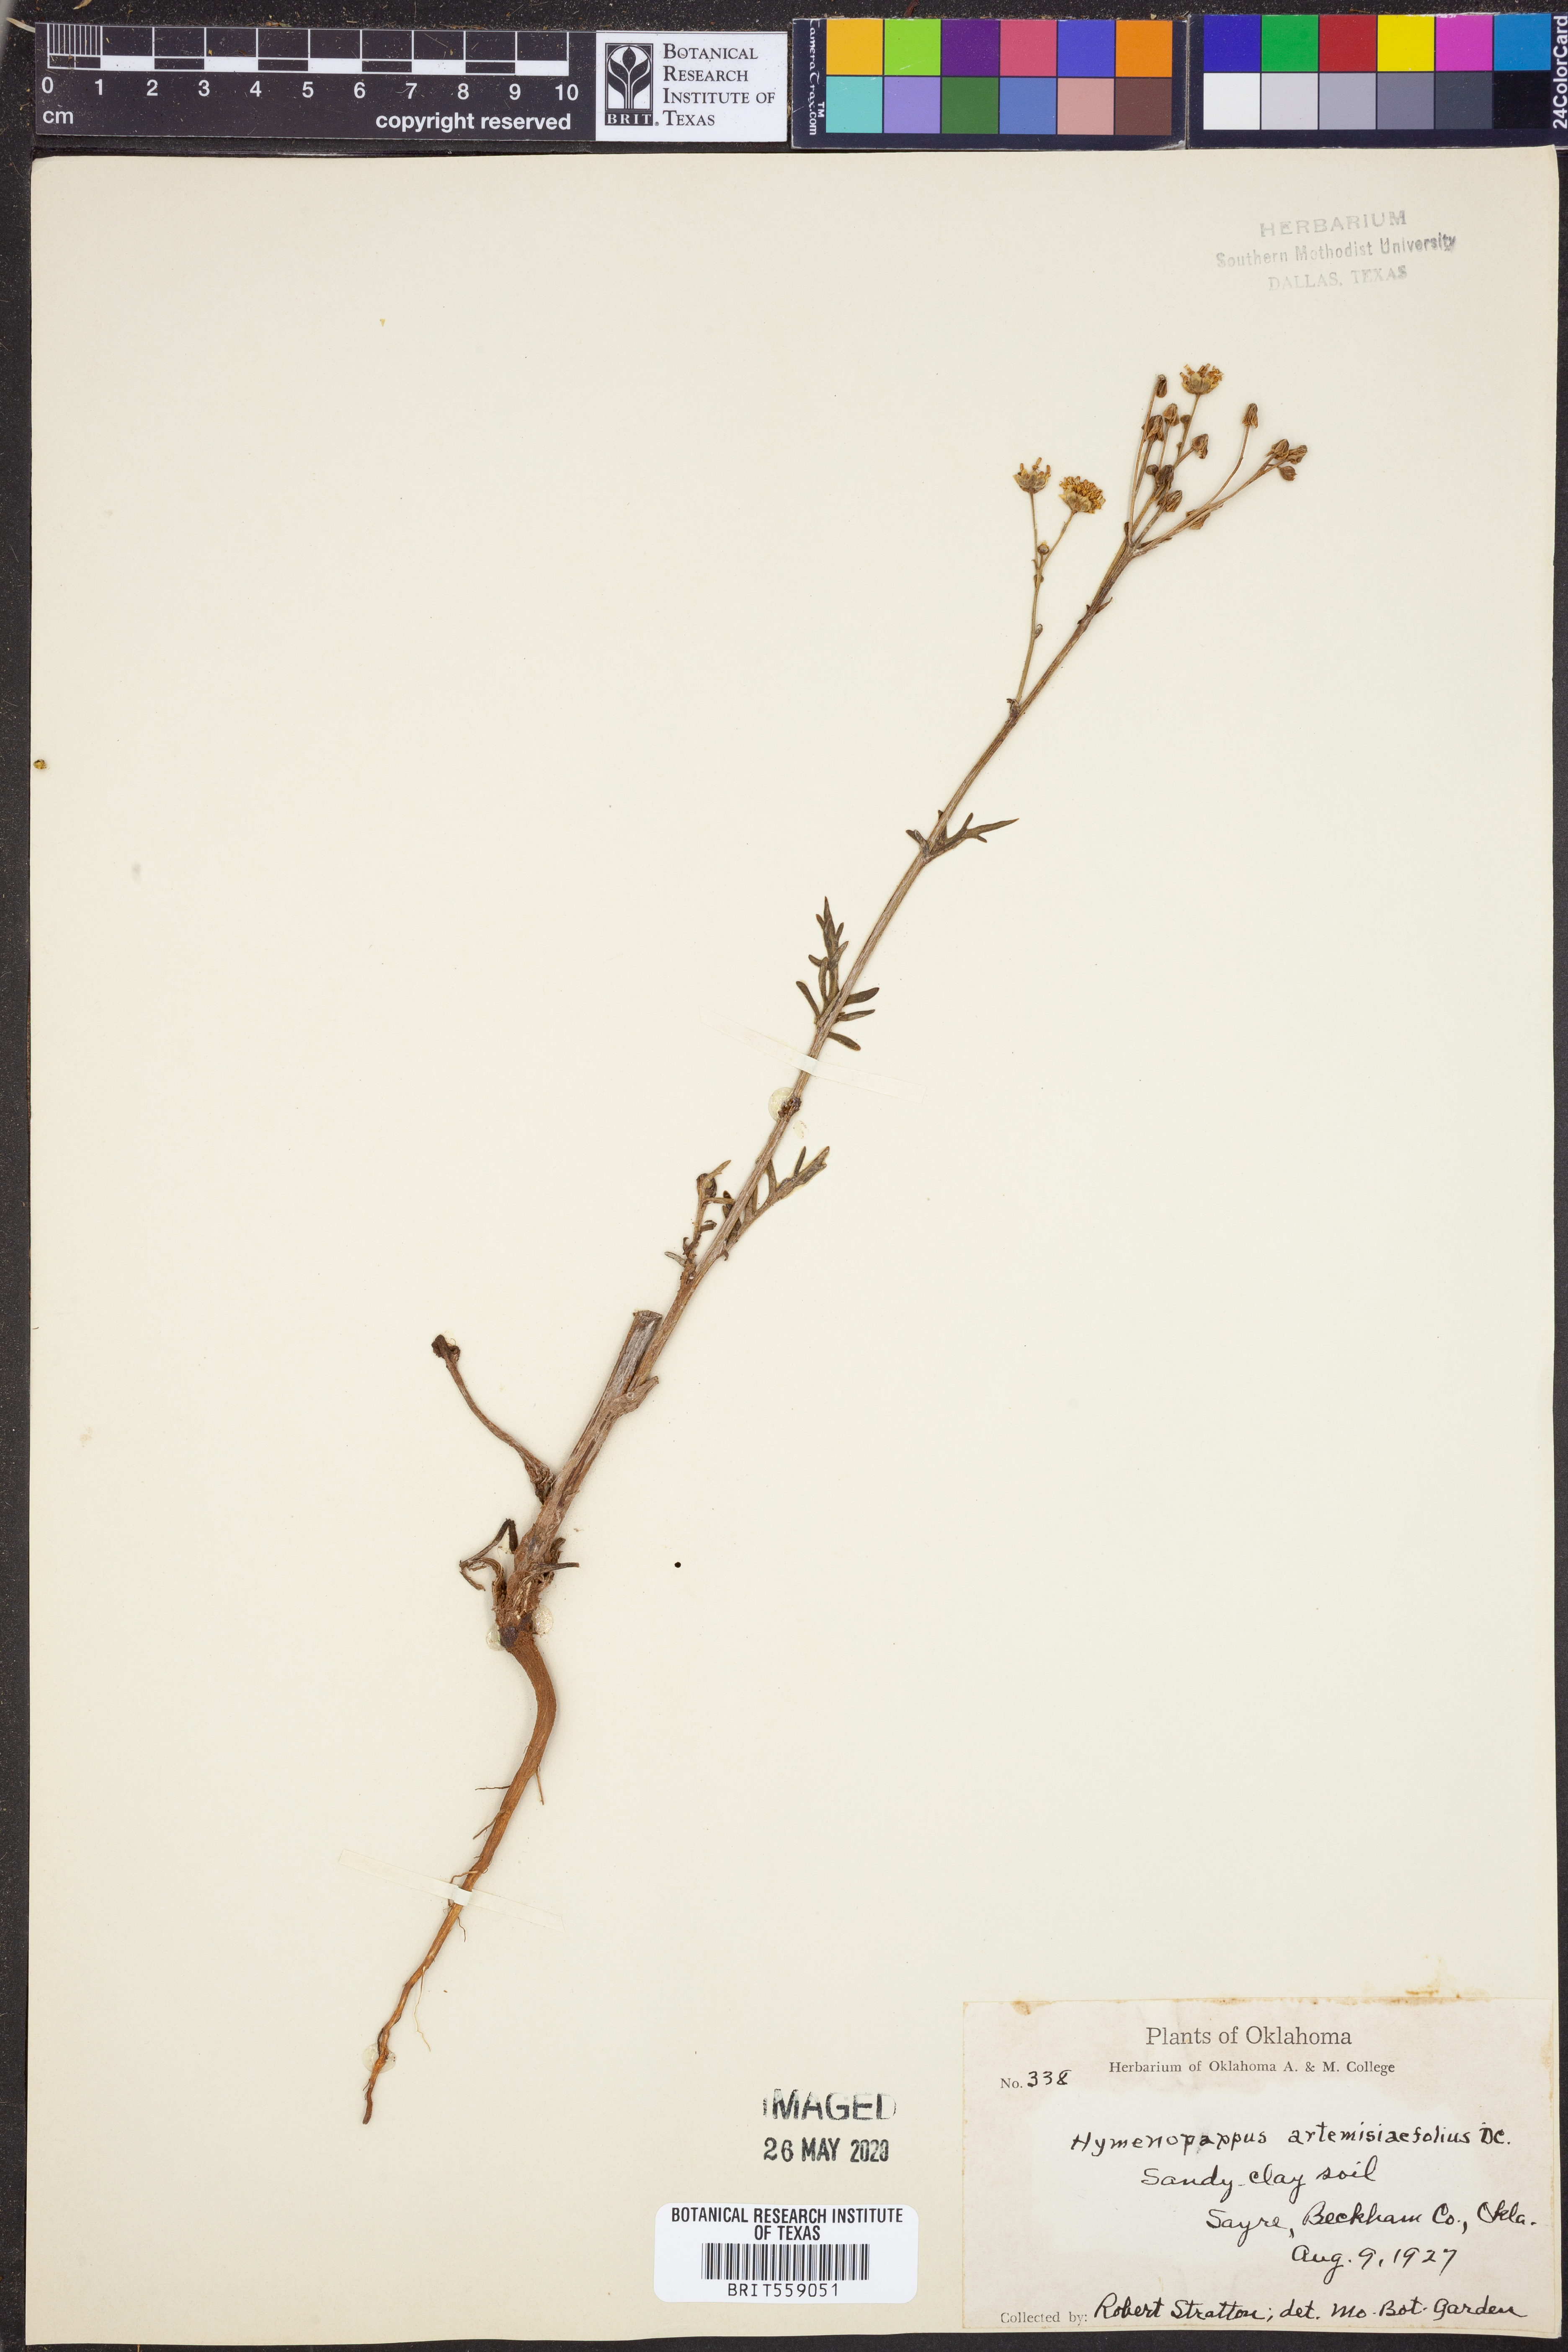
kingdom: Plantae
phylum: Tracheophyta
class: Magnoliopsida
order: Asterales
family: Asteraceae
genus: Hymenopappus
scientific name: Hymenopappus artemisiifolius
